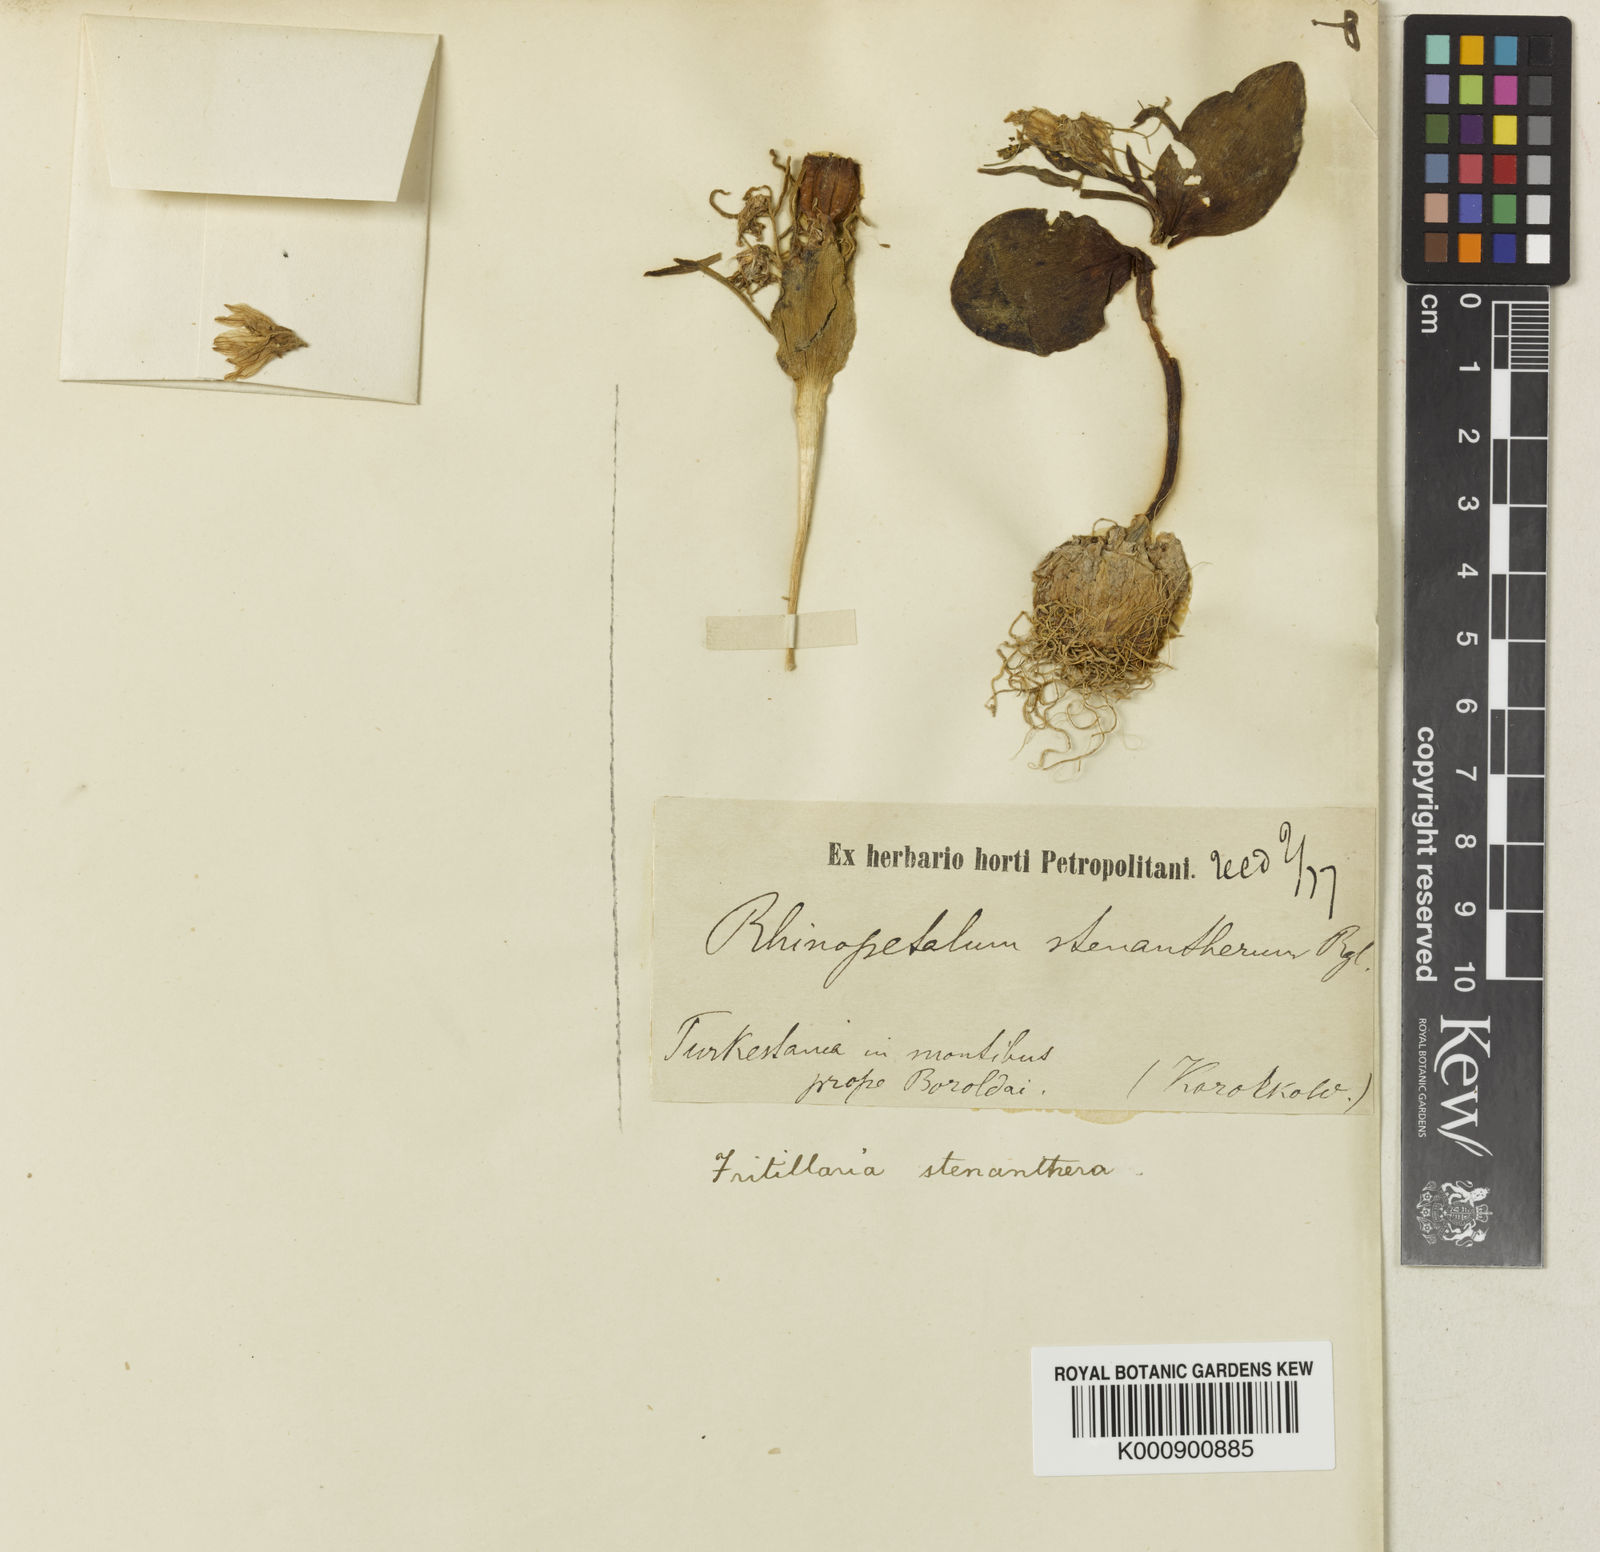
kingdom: Plantae
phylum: Tracheophyta
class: Liliopsida
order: Liliales
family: Liliaceae
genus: Fritillaria
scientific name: Fritillaria stenanthera
